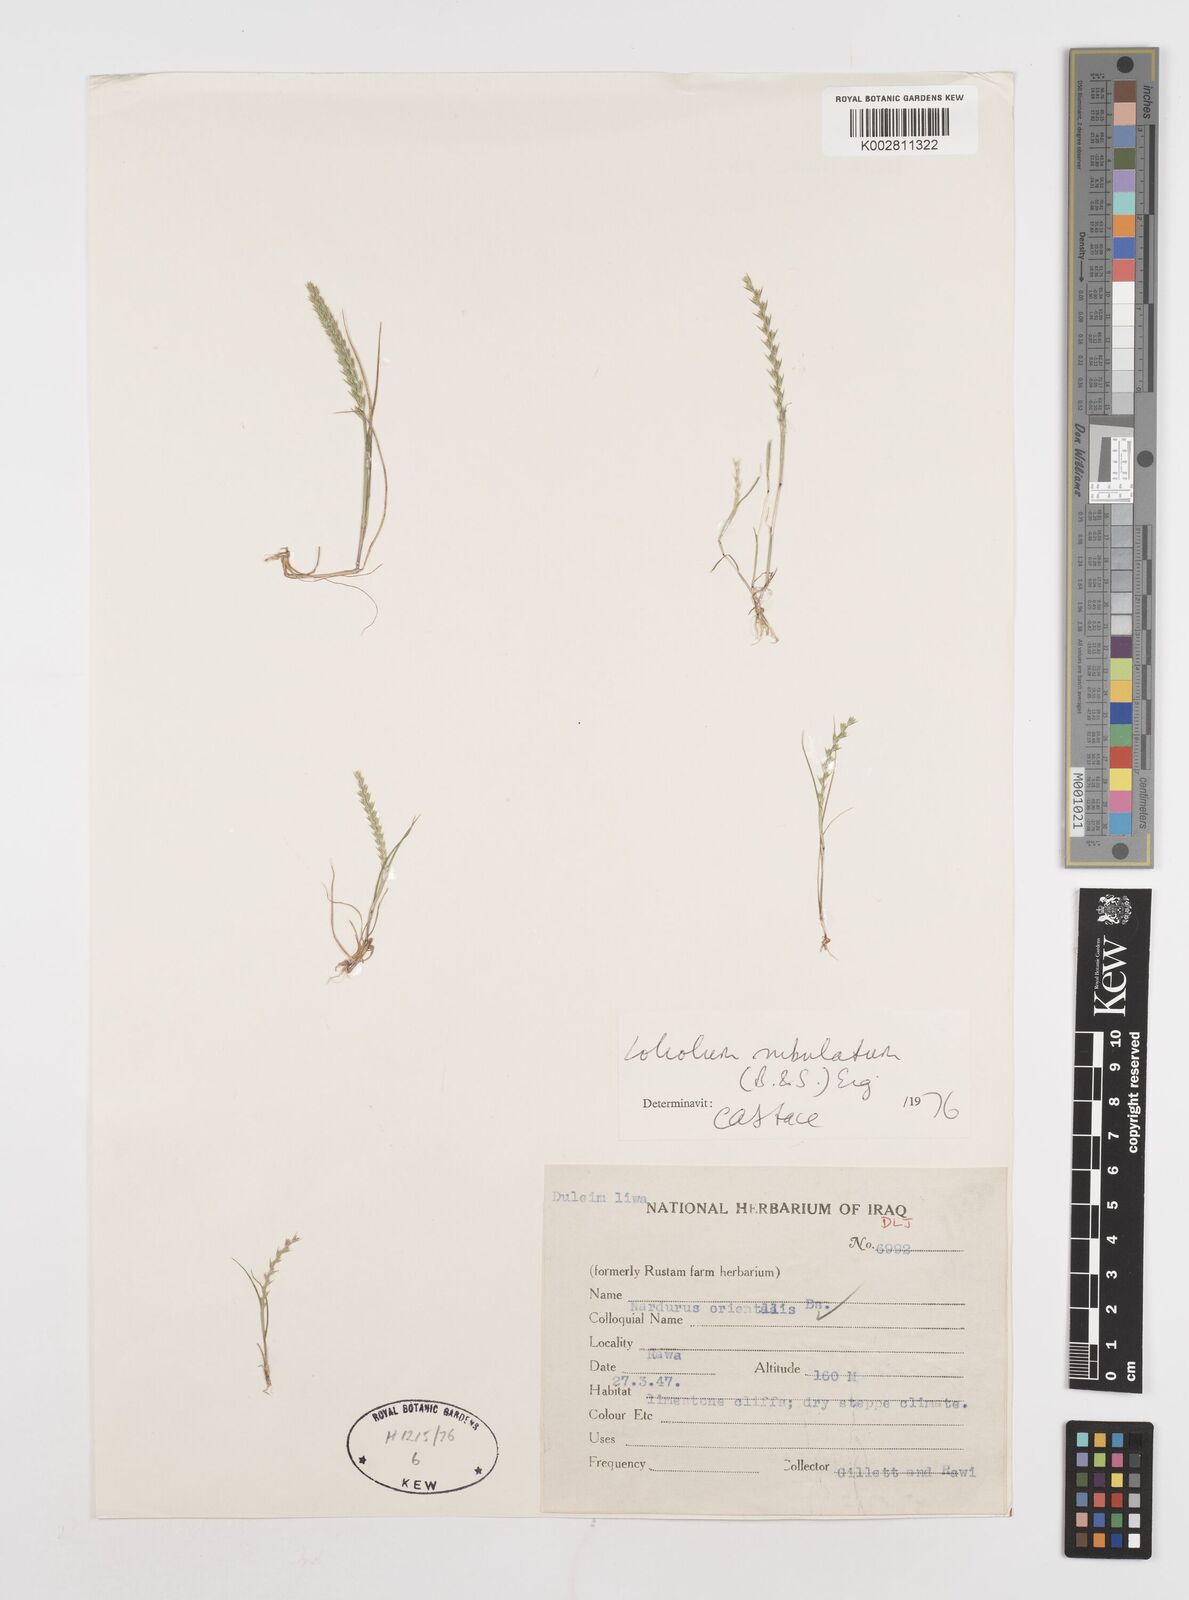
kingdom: Plantae
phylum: Tracheophyta
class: Liliopsida
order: Poales
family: Poaceae
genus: Festuca
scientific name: Festuca orientalis
